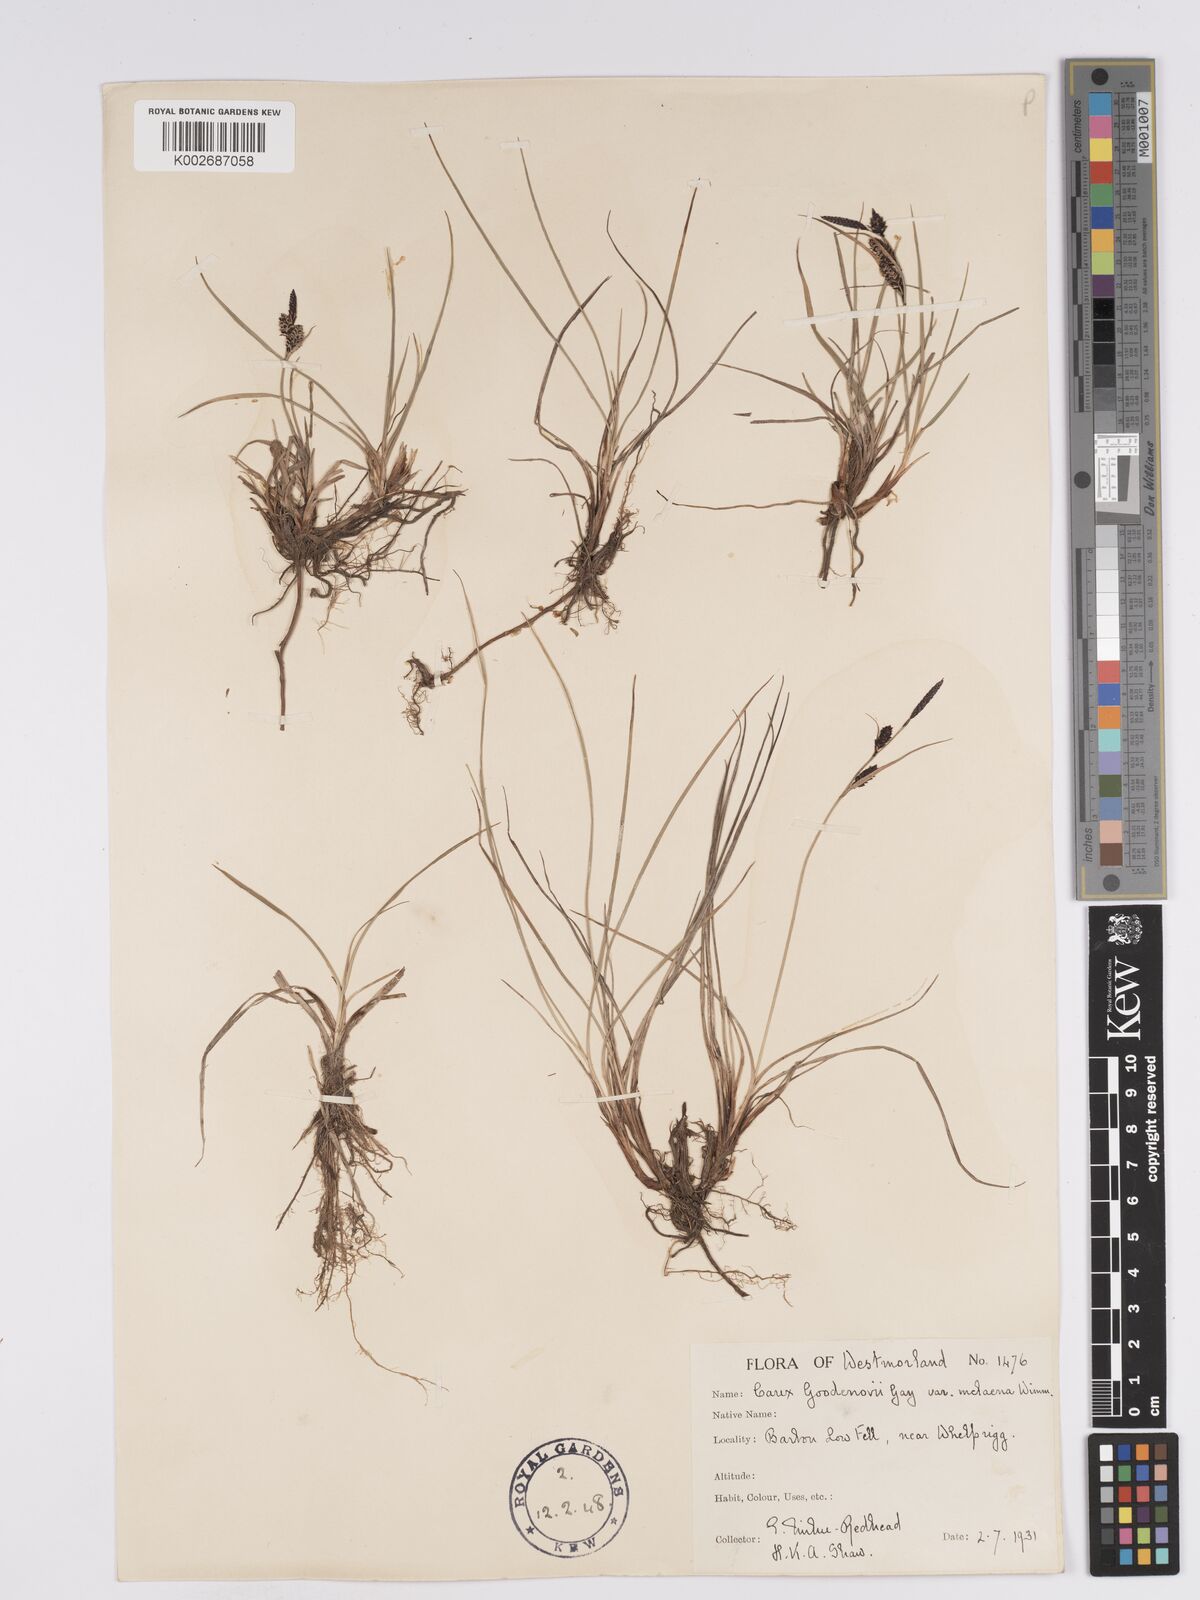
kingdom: Plantae
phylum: Tracheophyta
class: Liliopsida
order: Poales
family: Cyperaceae
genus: Carex
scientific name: Carex nigra
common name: Common sedge
